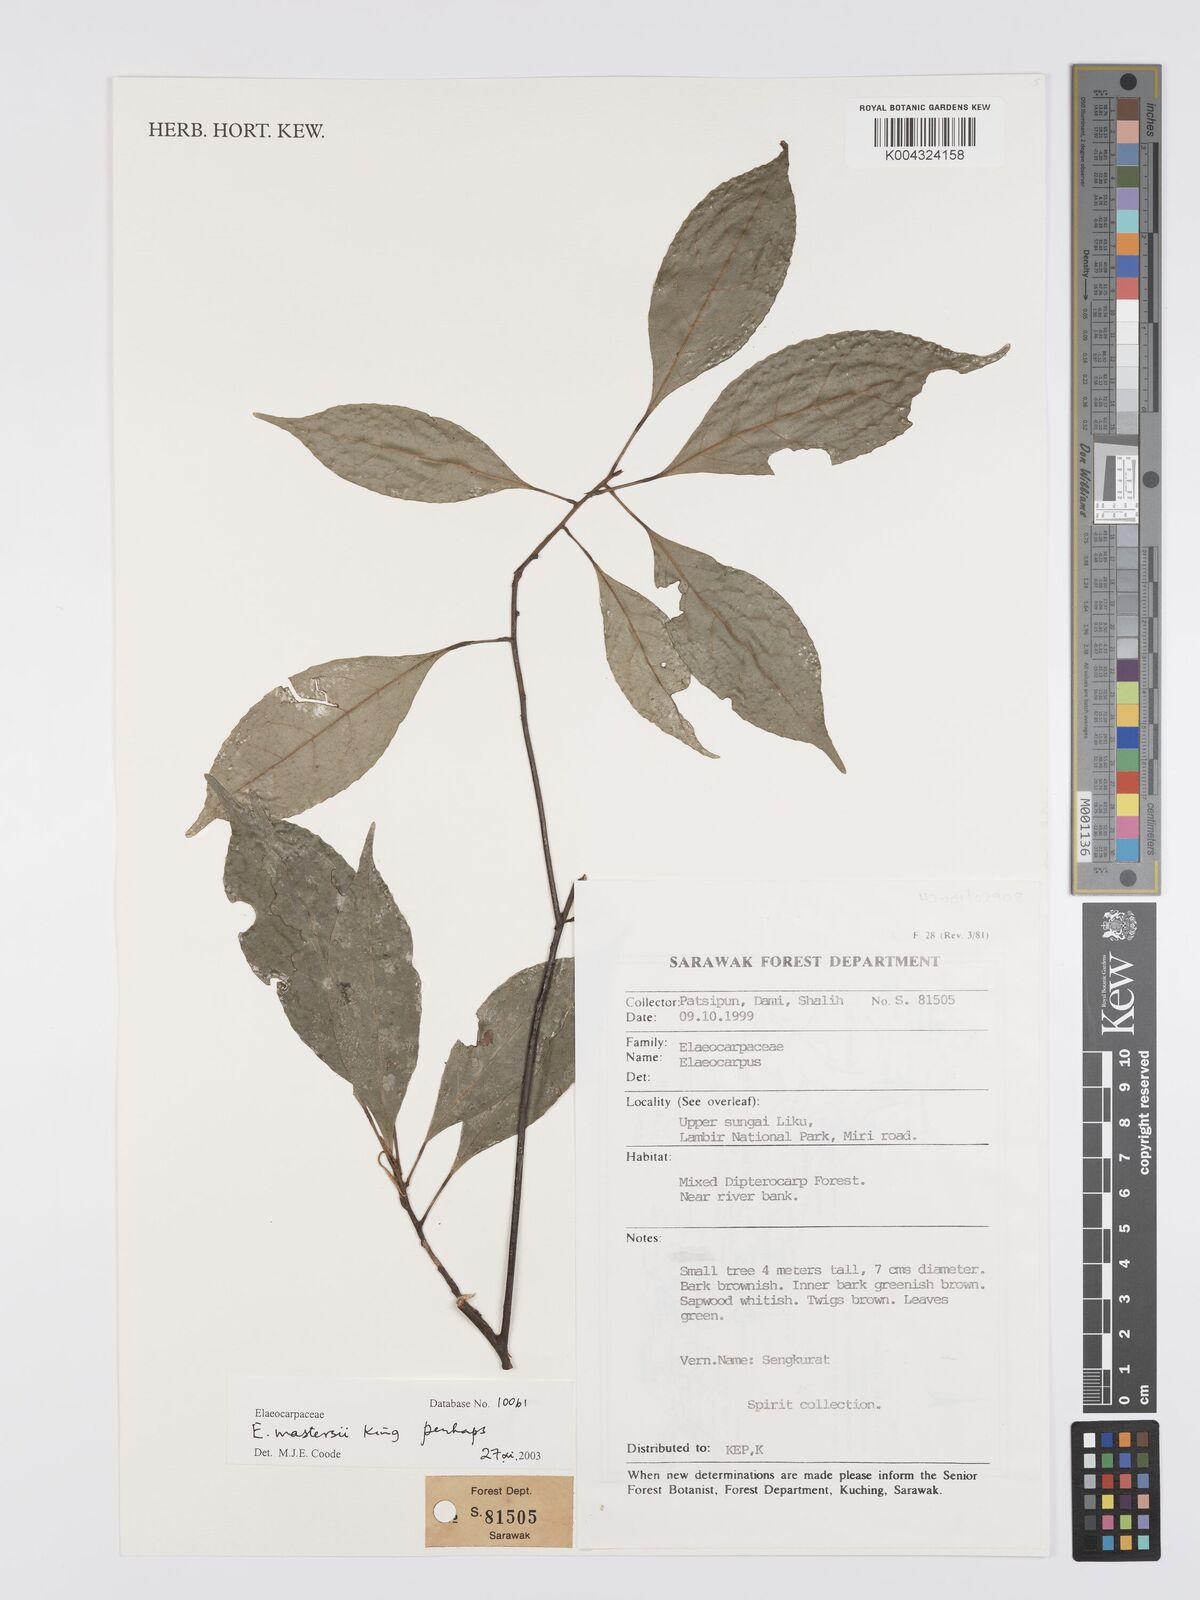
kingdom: Plantae
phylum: Tracheophyta
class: Magnoliopsida
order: Oxalidales
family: Elaeocarpaceae
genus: Elaeocarpus
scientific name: Elaeocarpus mastersii
